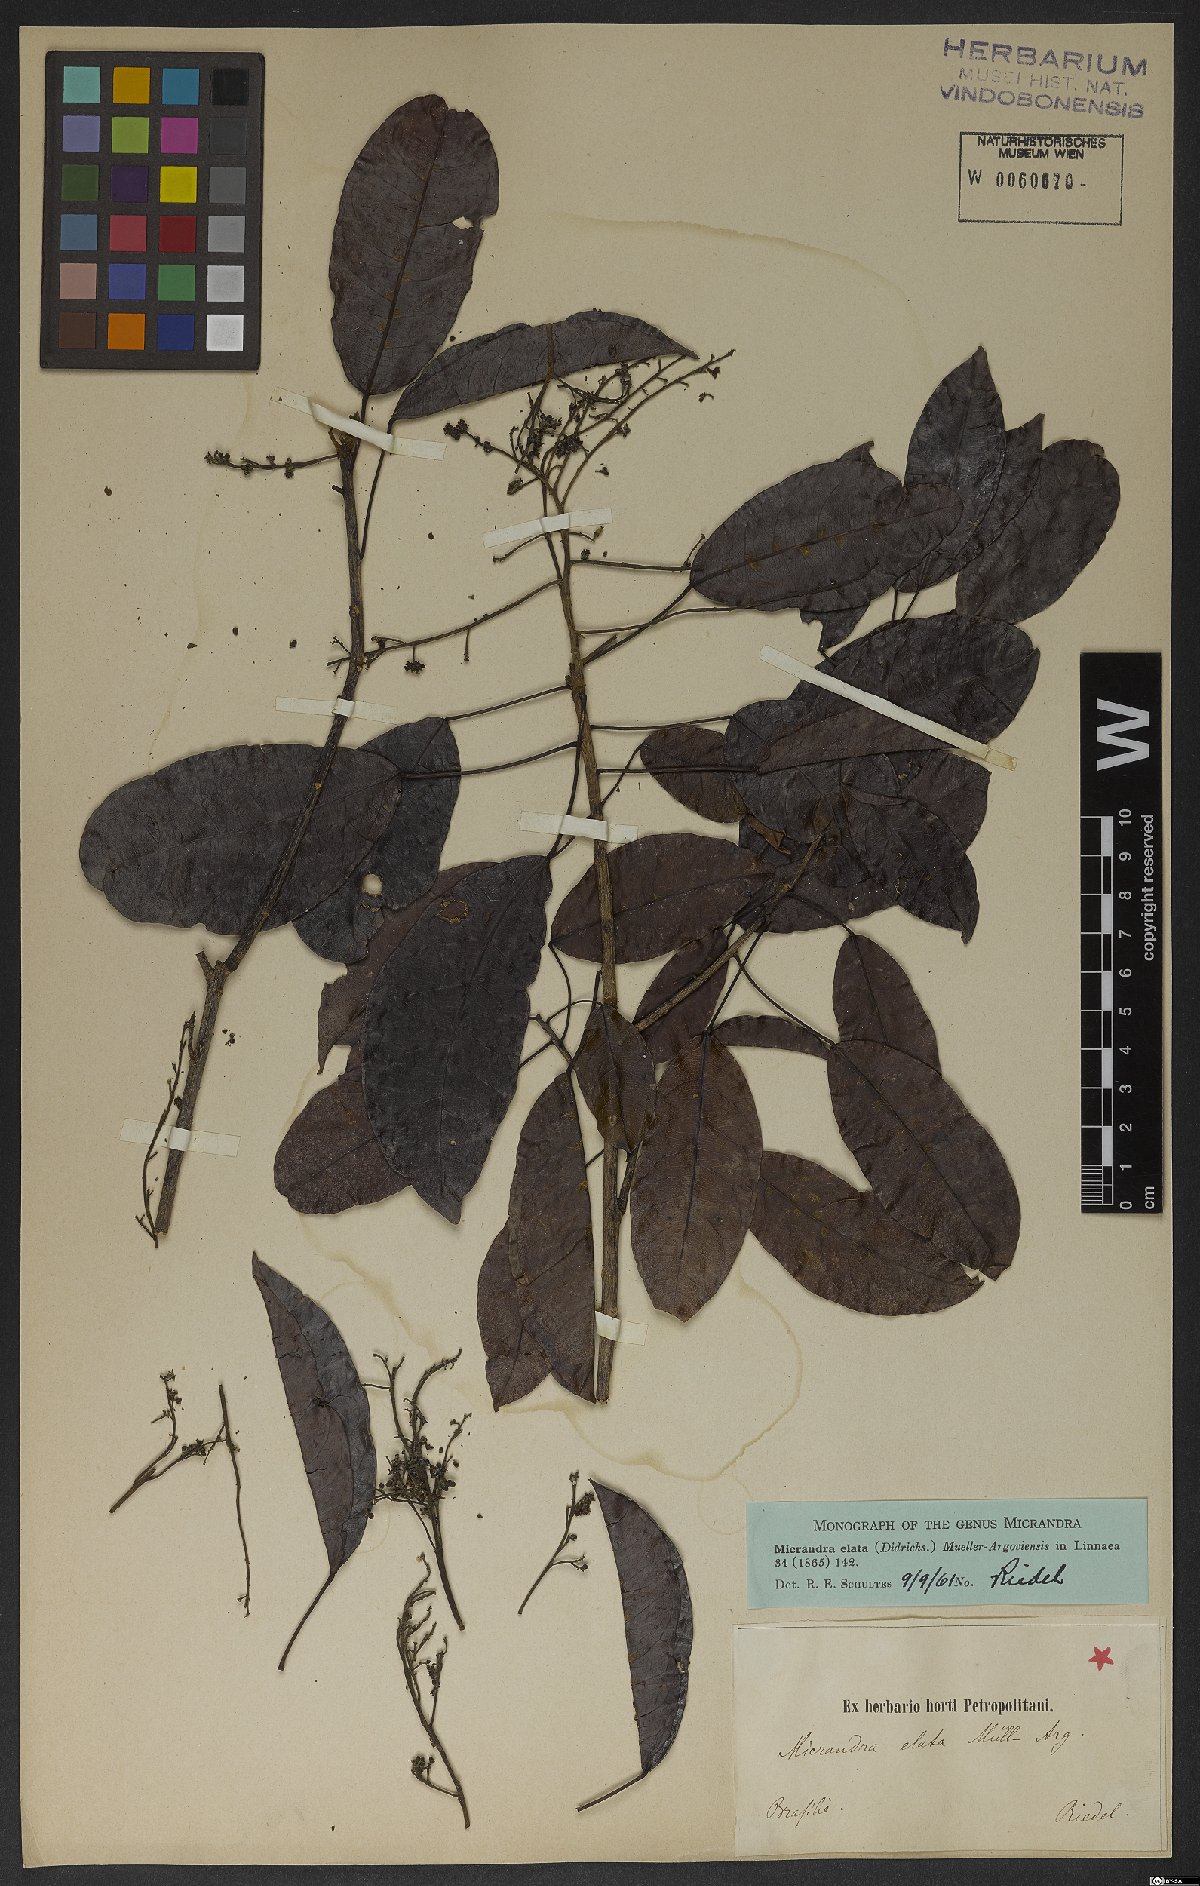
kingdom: Plantae
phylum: Tracheophyta
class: Magnoliopsida
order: Malpighiales
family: Euphorbiaceae
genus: Micrandra
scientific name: Micrandra elata
